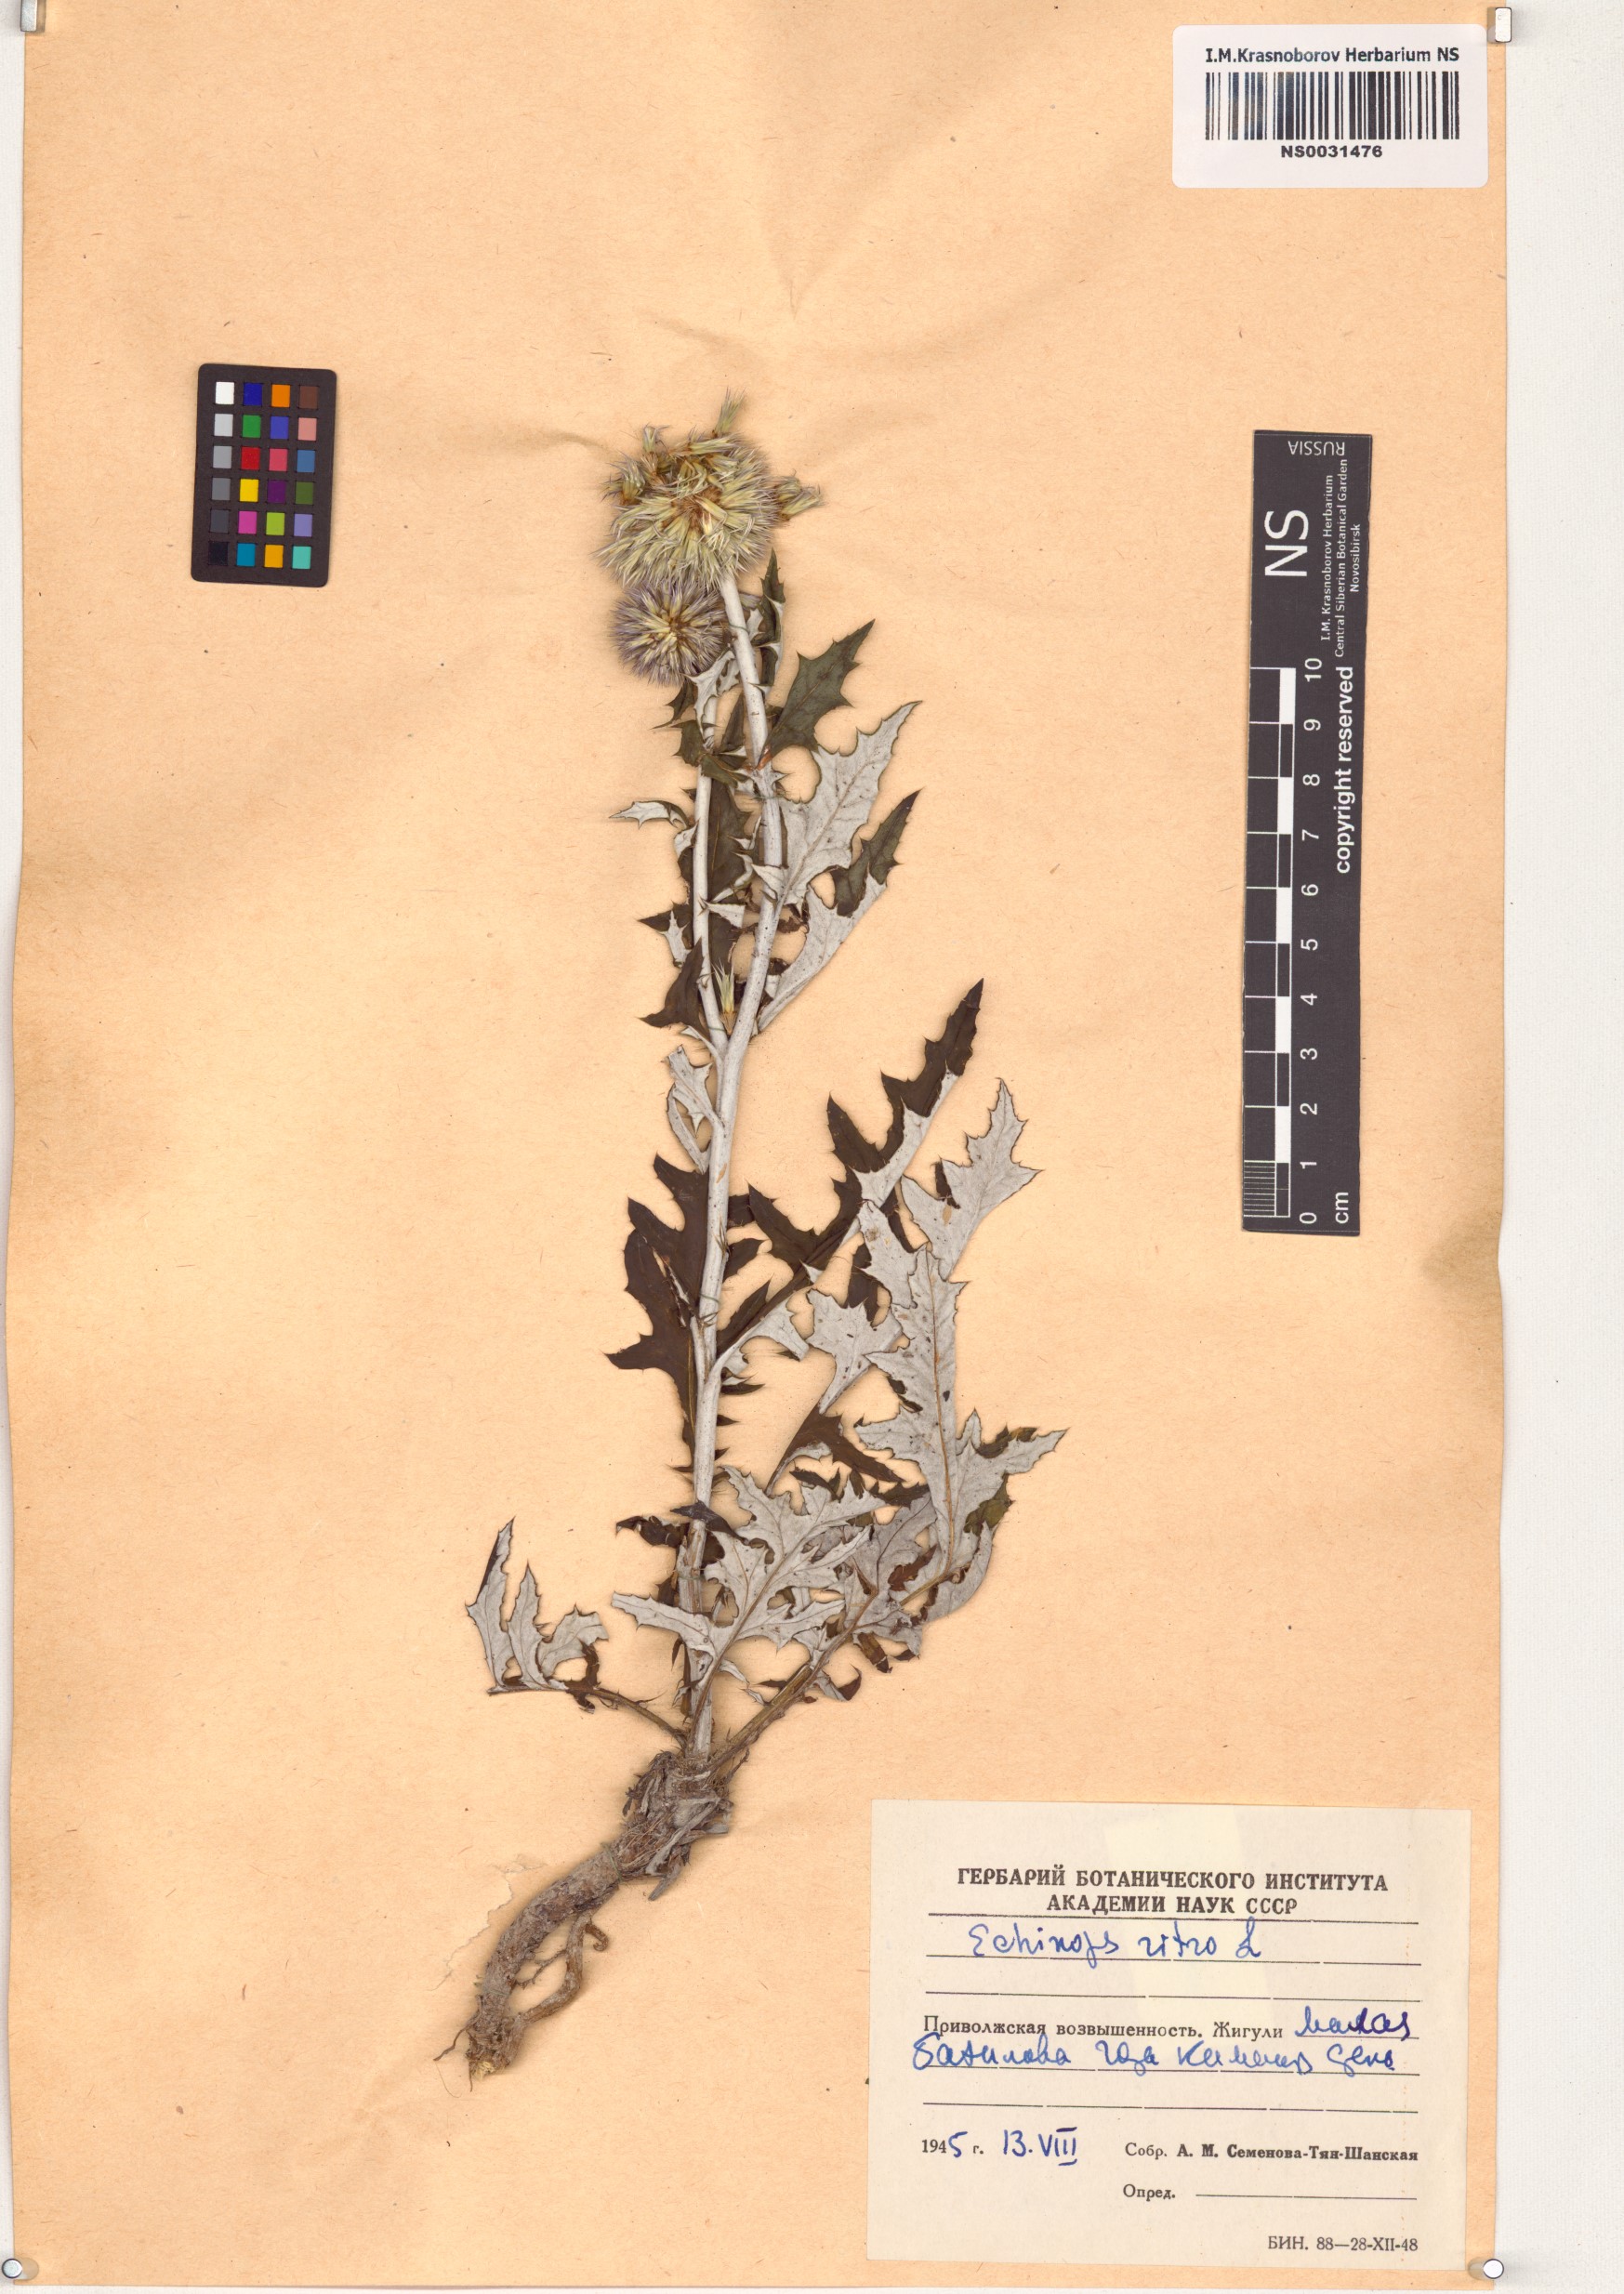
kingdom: Plantae
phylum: Tracheophyta
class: Magnoliopsida
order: Asterales
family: Asteraceae
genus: Echinops
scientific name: Echinops ritro
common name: Globe thistle
